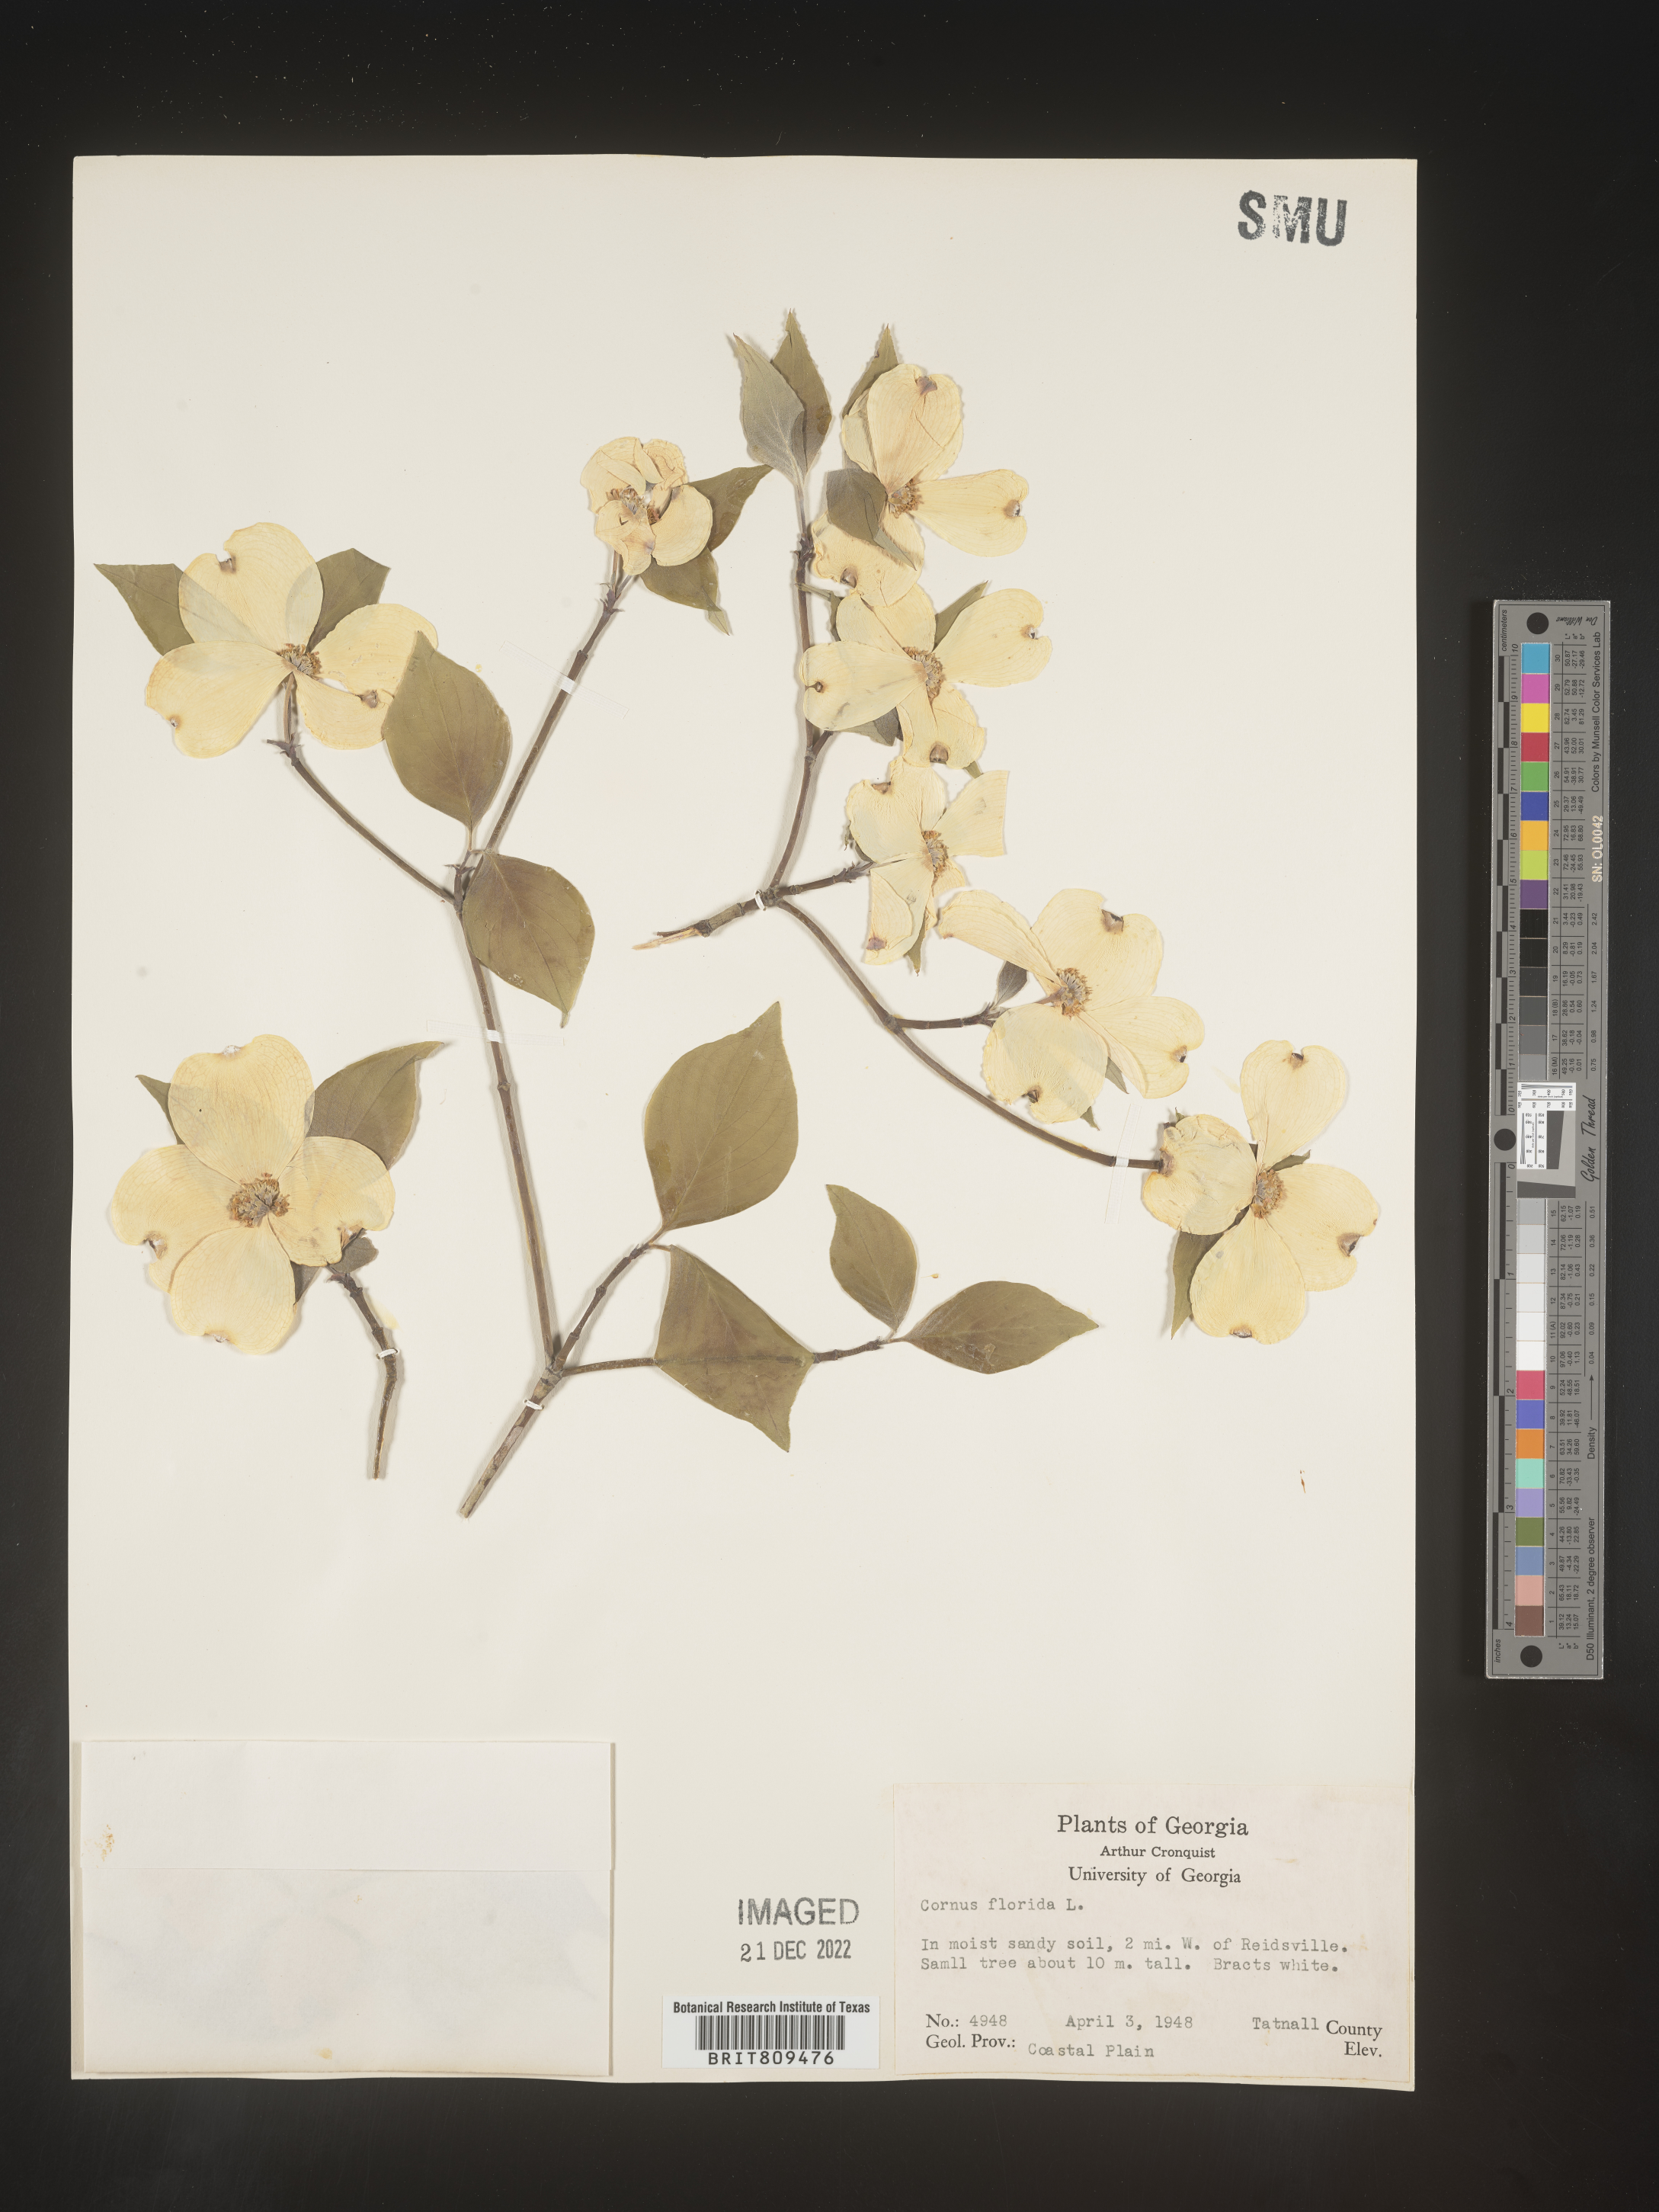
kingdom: Plantae
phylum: Tracheophyta
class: Magnoliopsida
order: Cornales
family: Cornaceae
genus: Cornus
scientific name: Cornus florida
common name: Flowering dogwood
